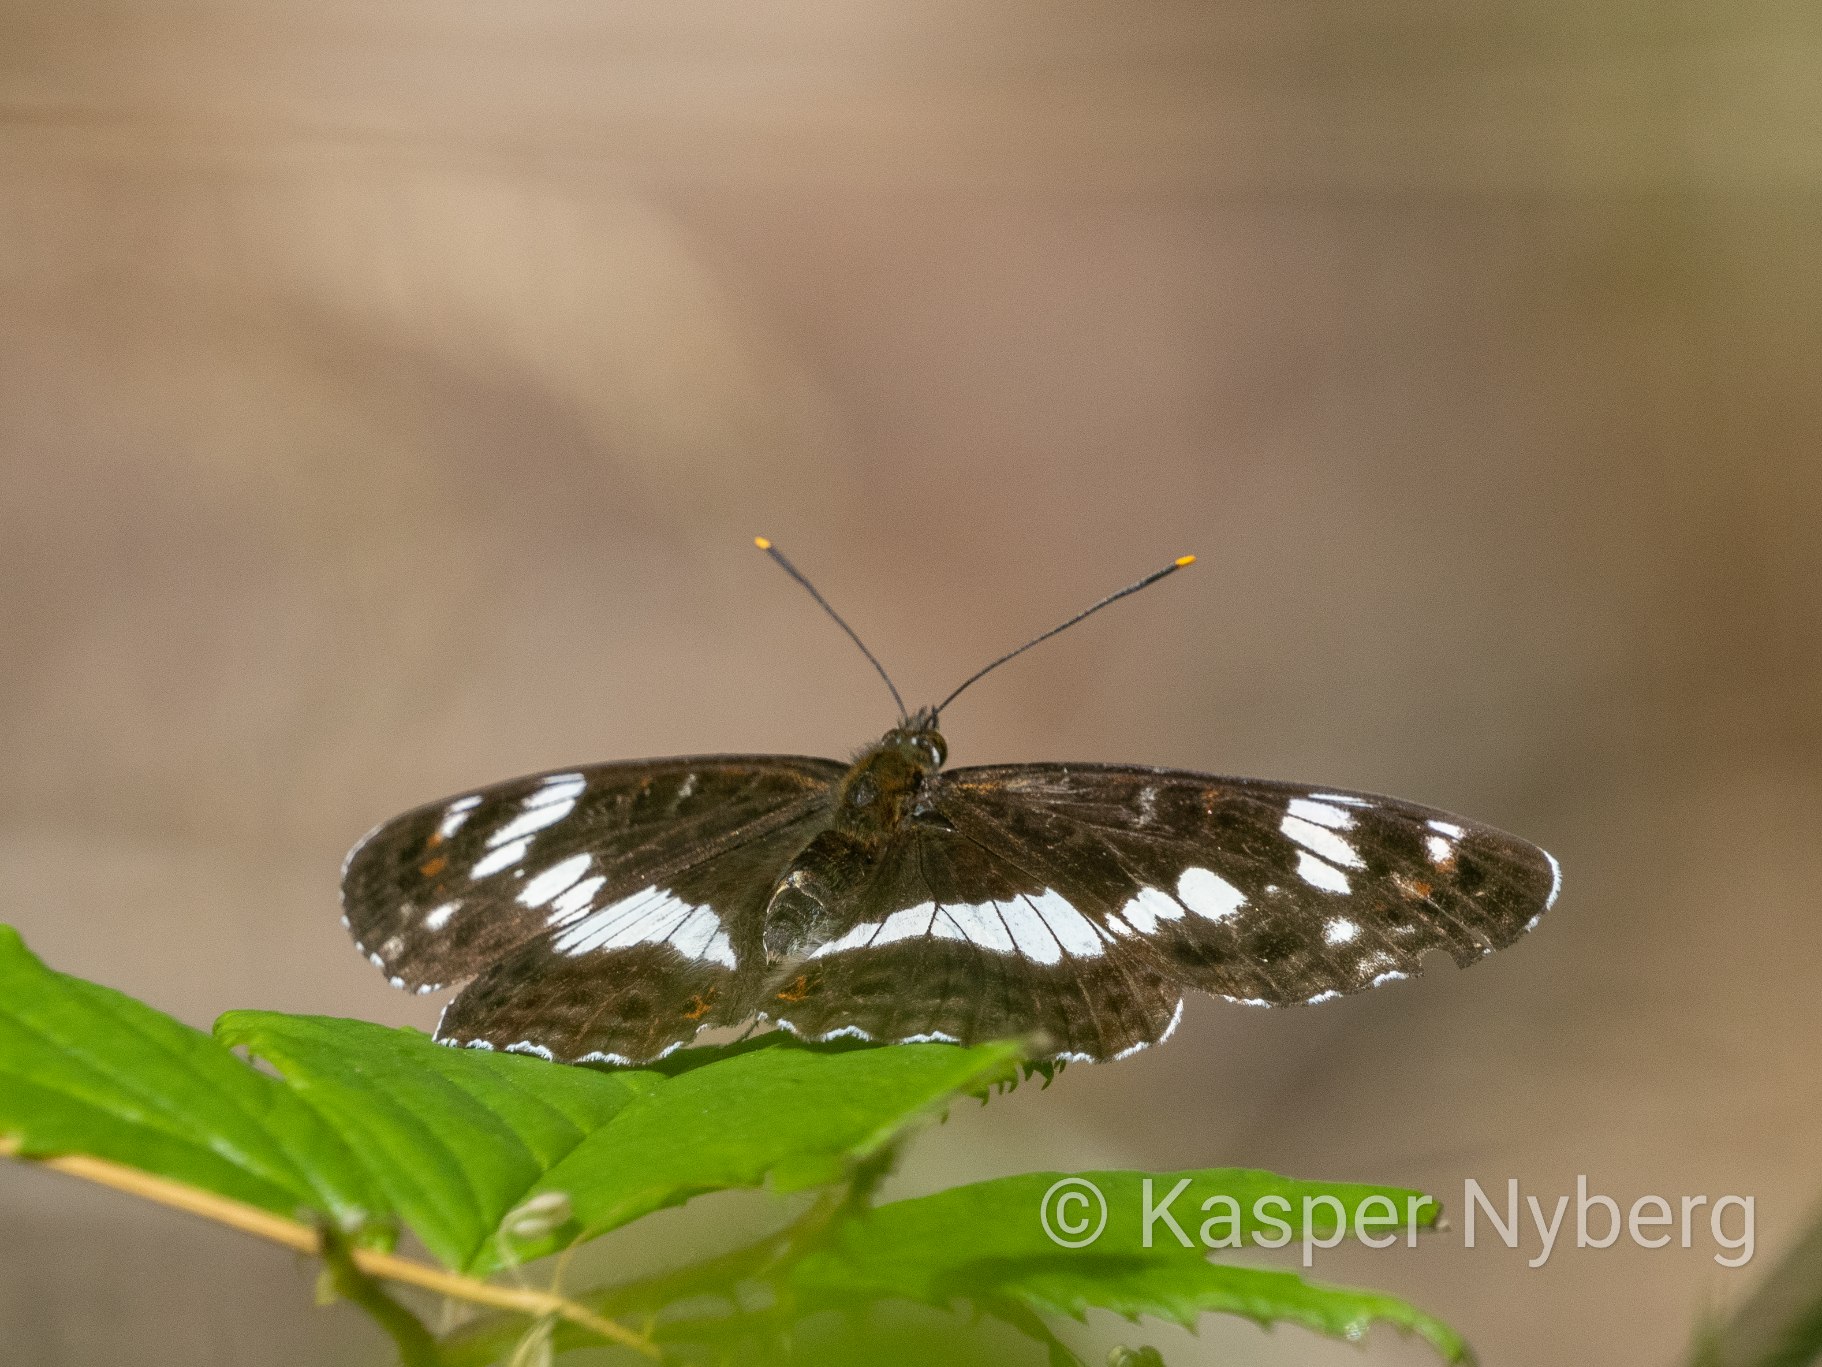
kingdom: Animalia
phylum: Arthropoda
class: Insecta
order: Lepidoptera
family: Nymphalidae
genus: Ladoga
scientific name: Ladoga camilla
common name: Hvid admiral
